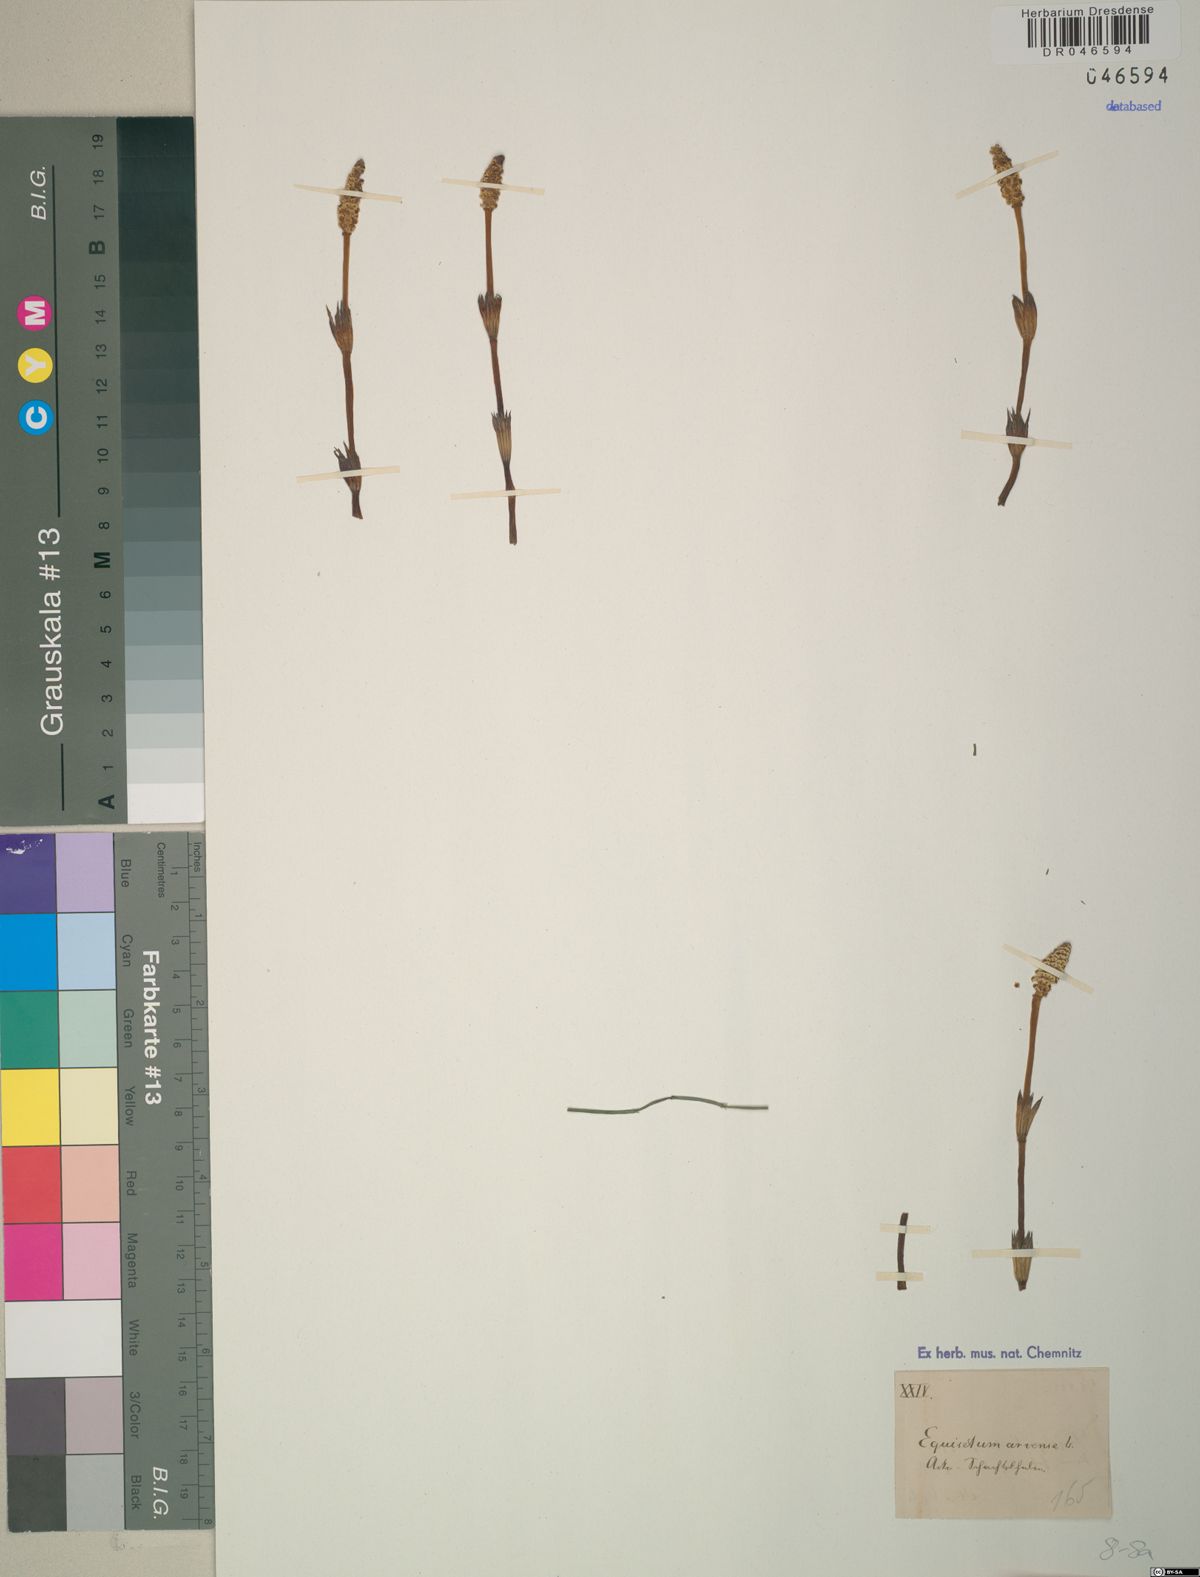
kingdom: Plantae
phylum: Tracheophyta
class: Polypodiopsida
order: Equisetales
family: Equisetaceae
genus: Equisetum
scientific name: Equisetum arvense
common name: Field horsetail
